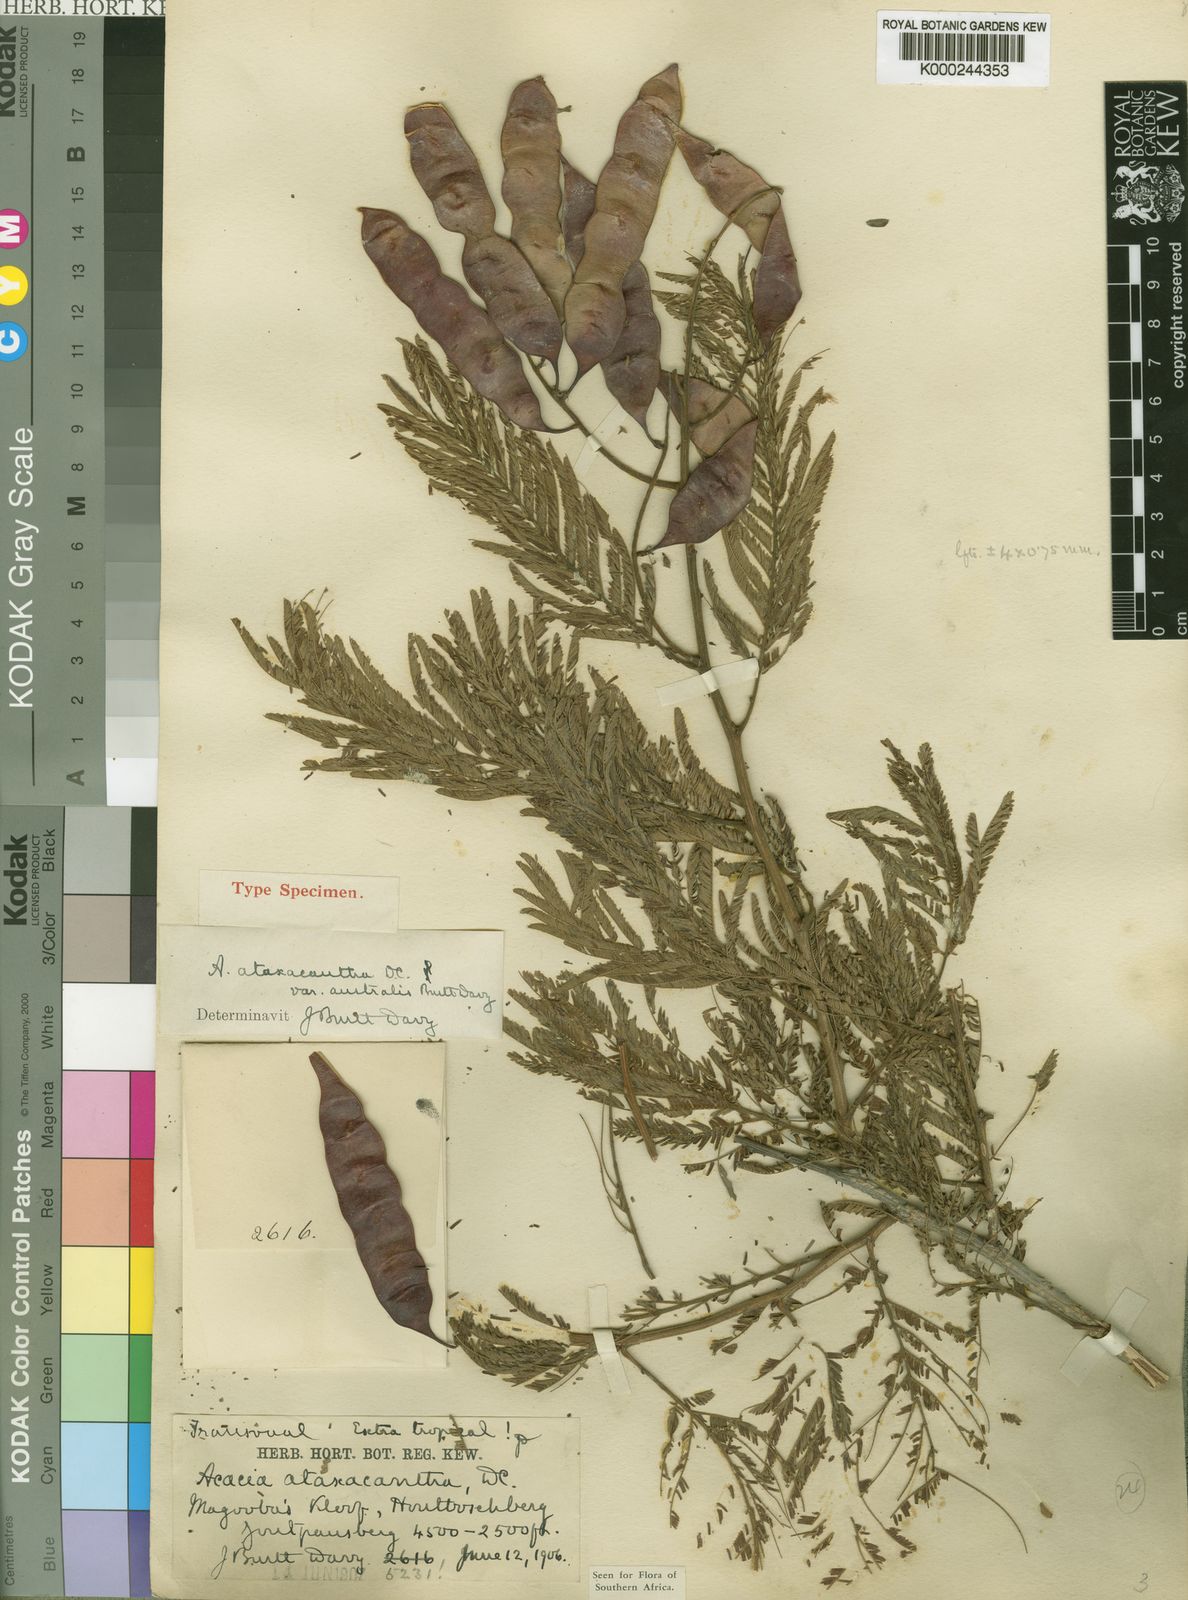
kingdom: Plantae
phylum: Tracheophyta
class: Magnoliopsida
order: Fabales
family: Fabaceae
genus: Senegalia
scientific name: Senegalia ataxacantha
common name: Flame acacia
